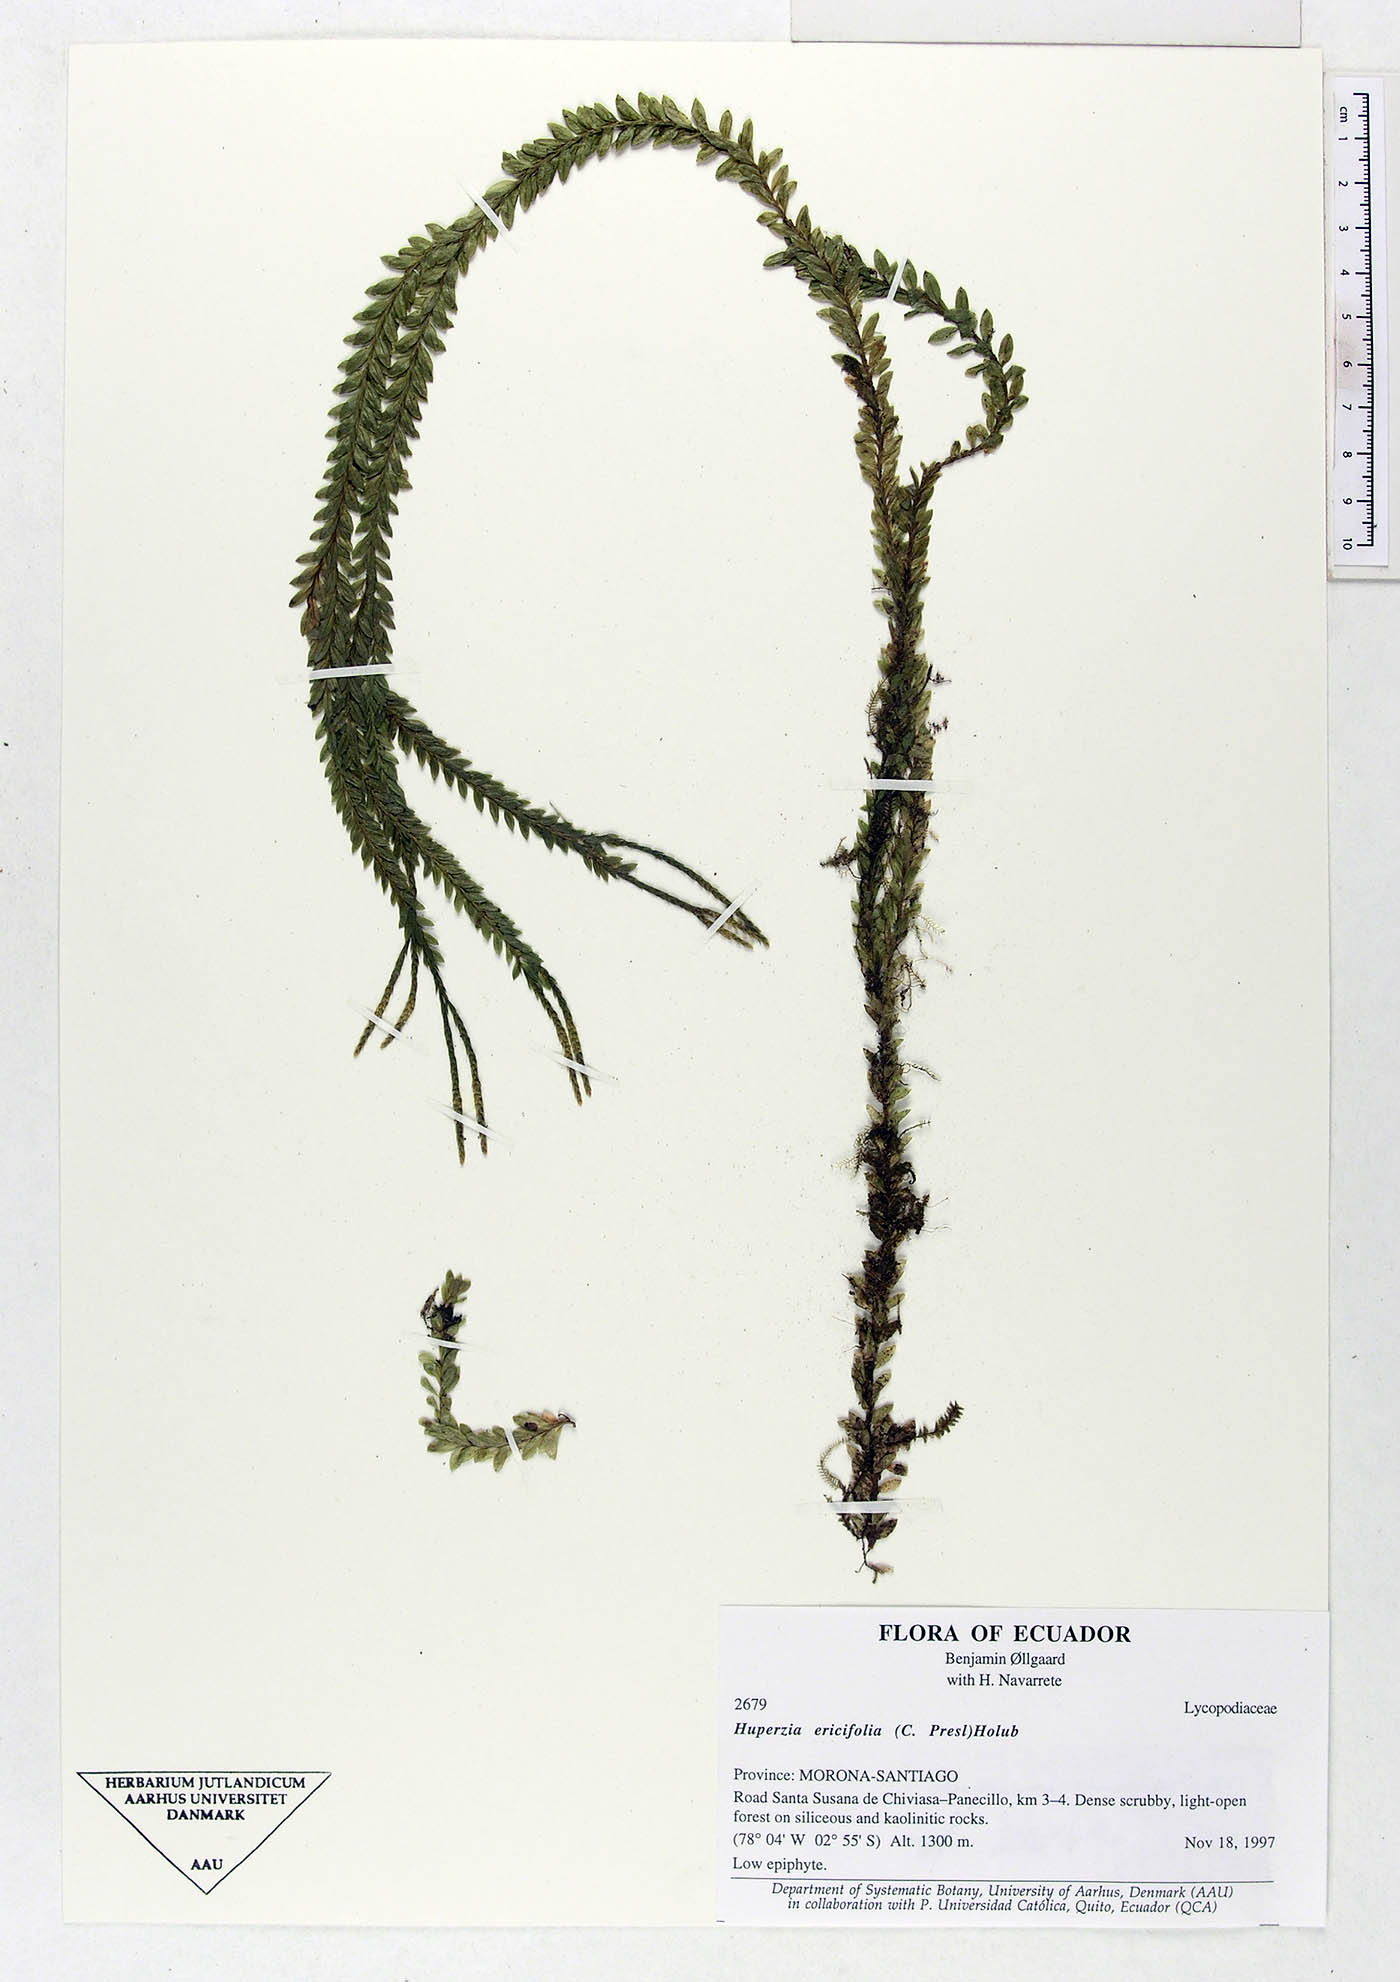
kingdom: Plantae
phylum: Tracheophyta
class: Lycopodiopsida
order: Lycopodiales
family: Lycopodiaceae
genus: Phlegmariurus
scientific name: Phlegmariurus ericifolius
